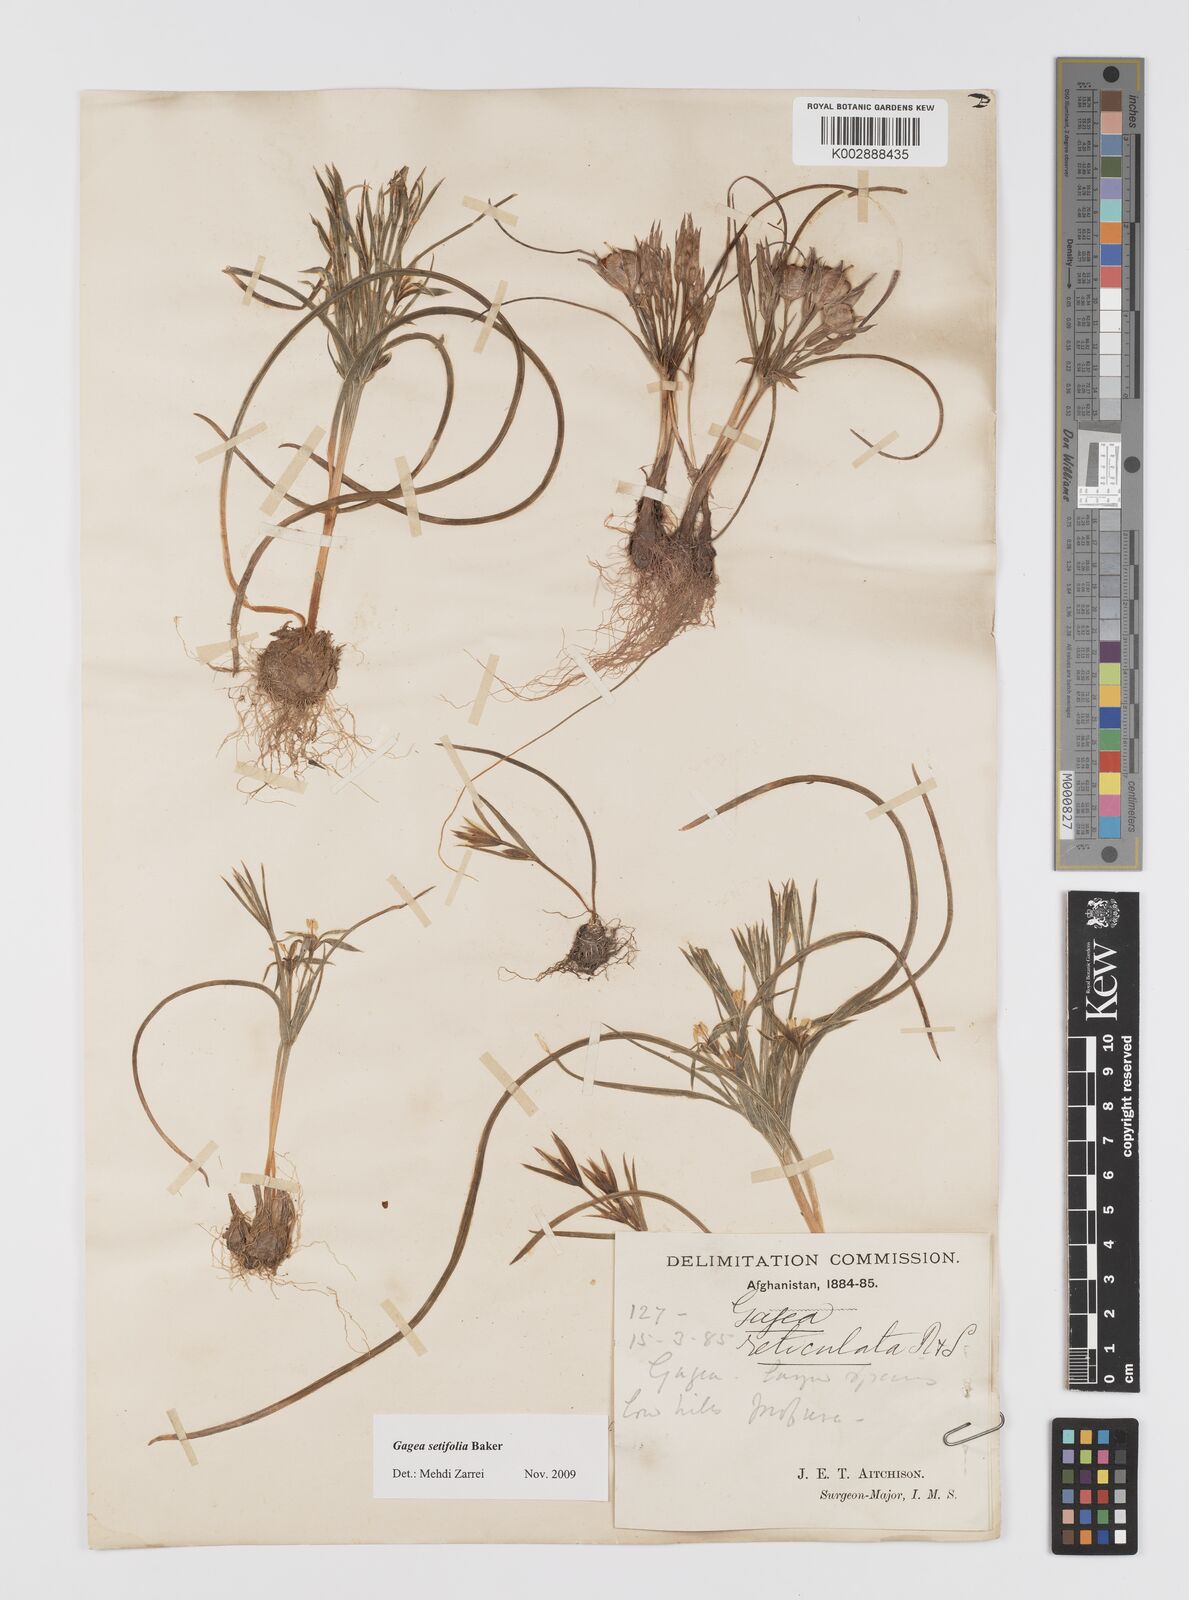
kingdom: Plantae
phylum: Tracheophyta
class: Liliopsida
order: Liliales
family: Liliaceae
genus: Gagea
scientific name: Gagea setifolia
